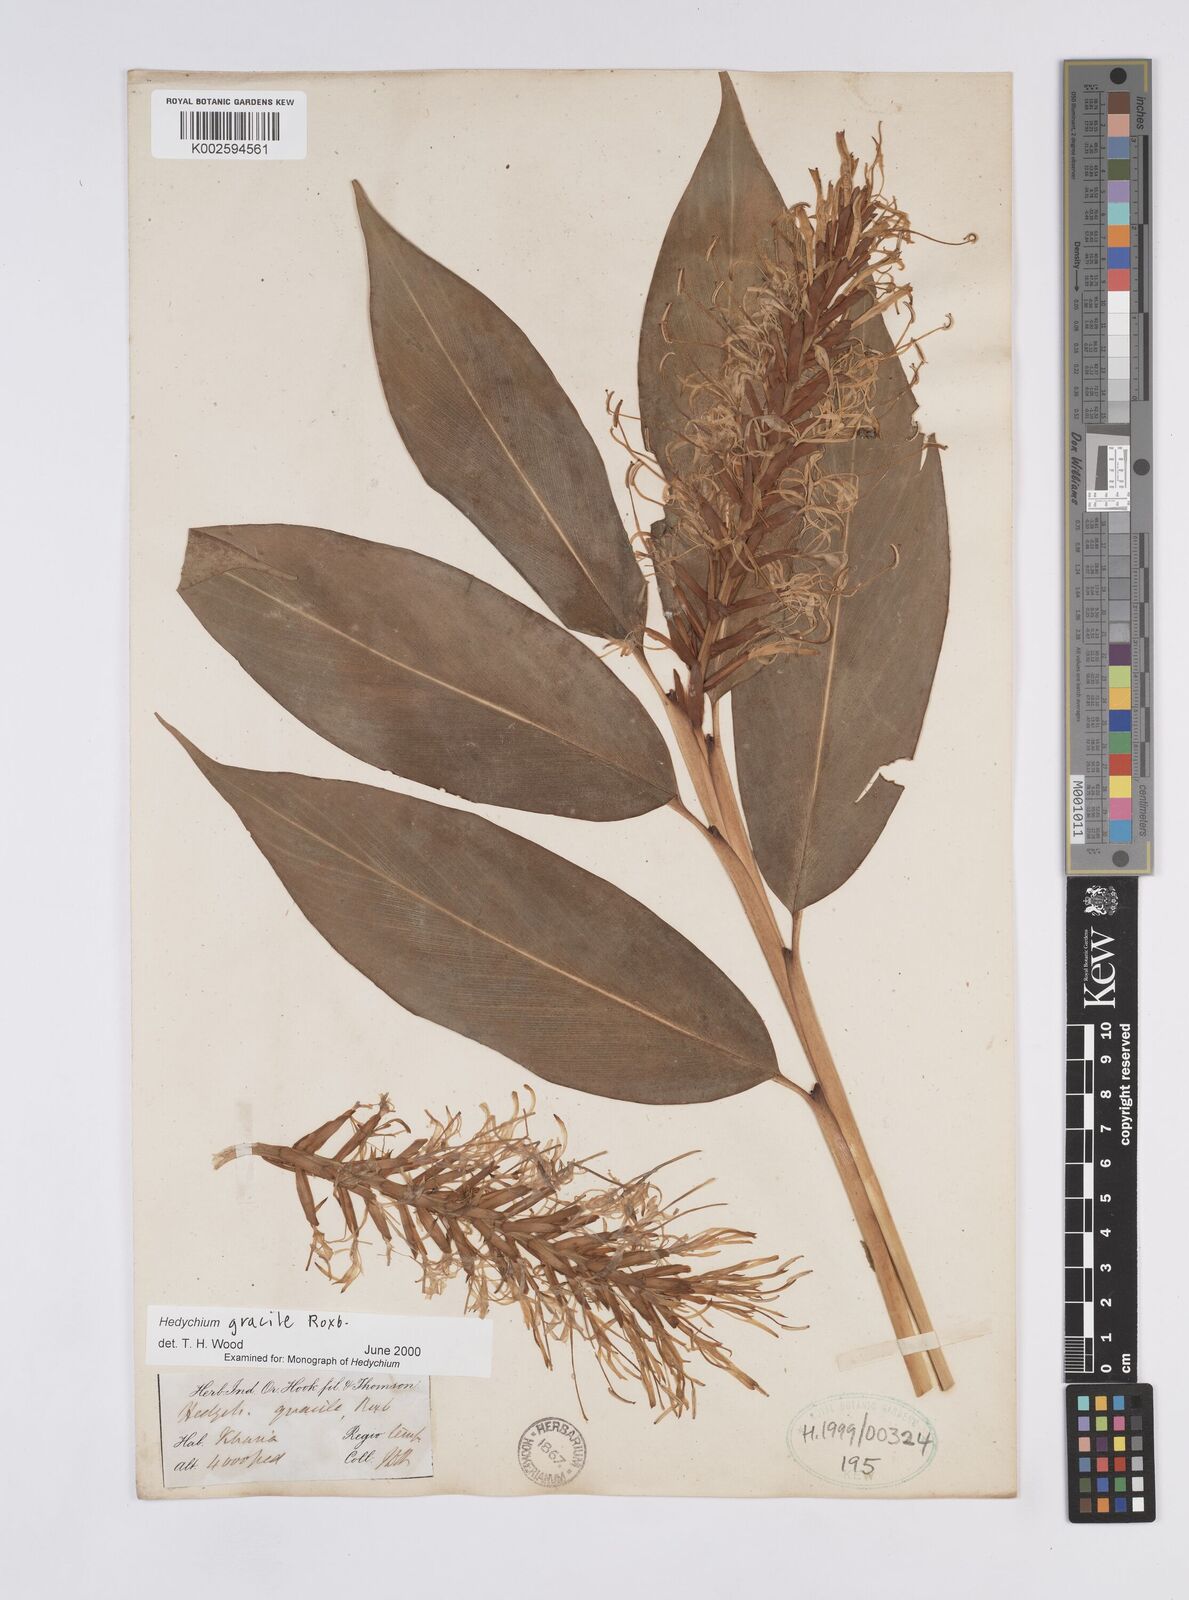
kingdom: Plantae
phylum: Tracheophyta
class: Liliopsida
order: Zingiberales
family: Zingiberaceae
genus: Hedychium
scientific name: Hedychium glaucum
